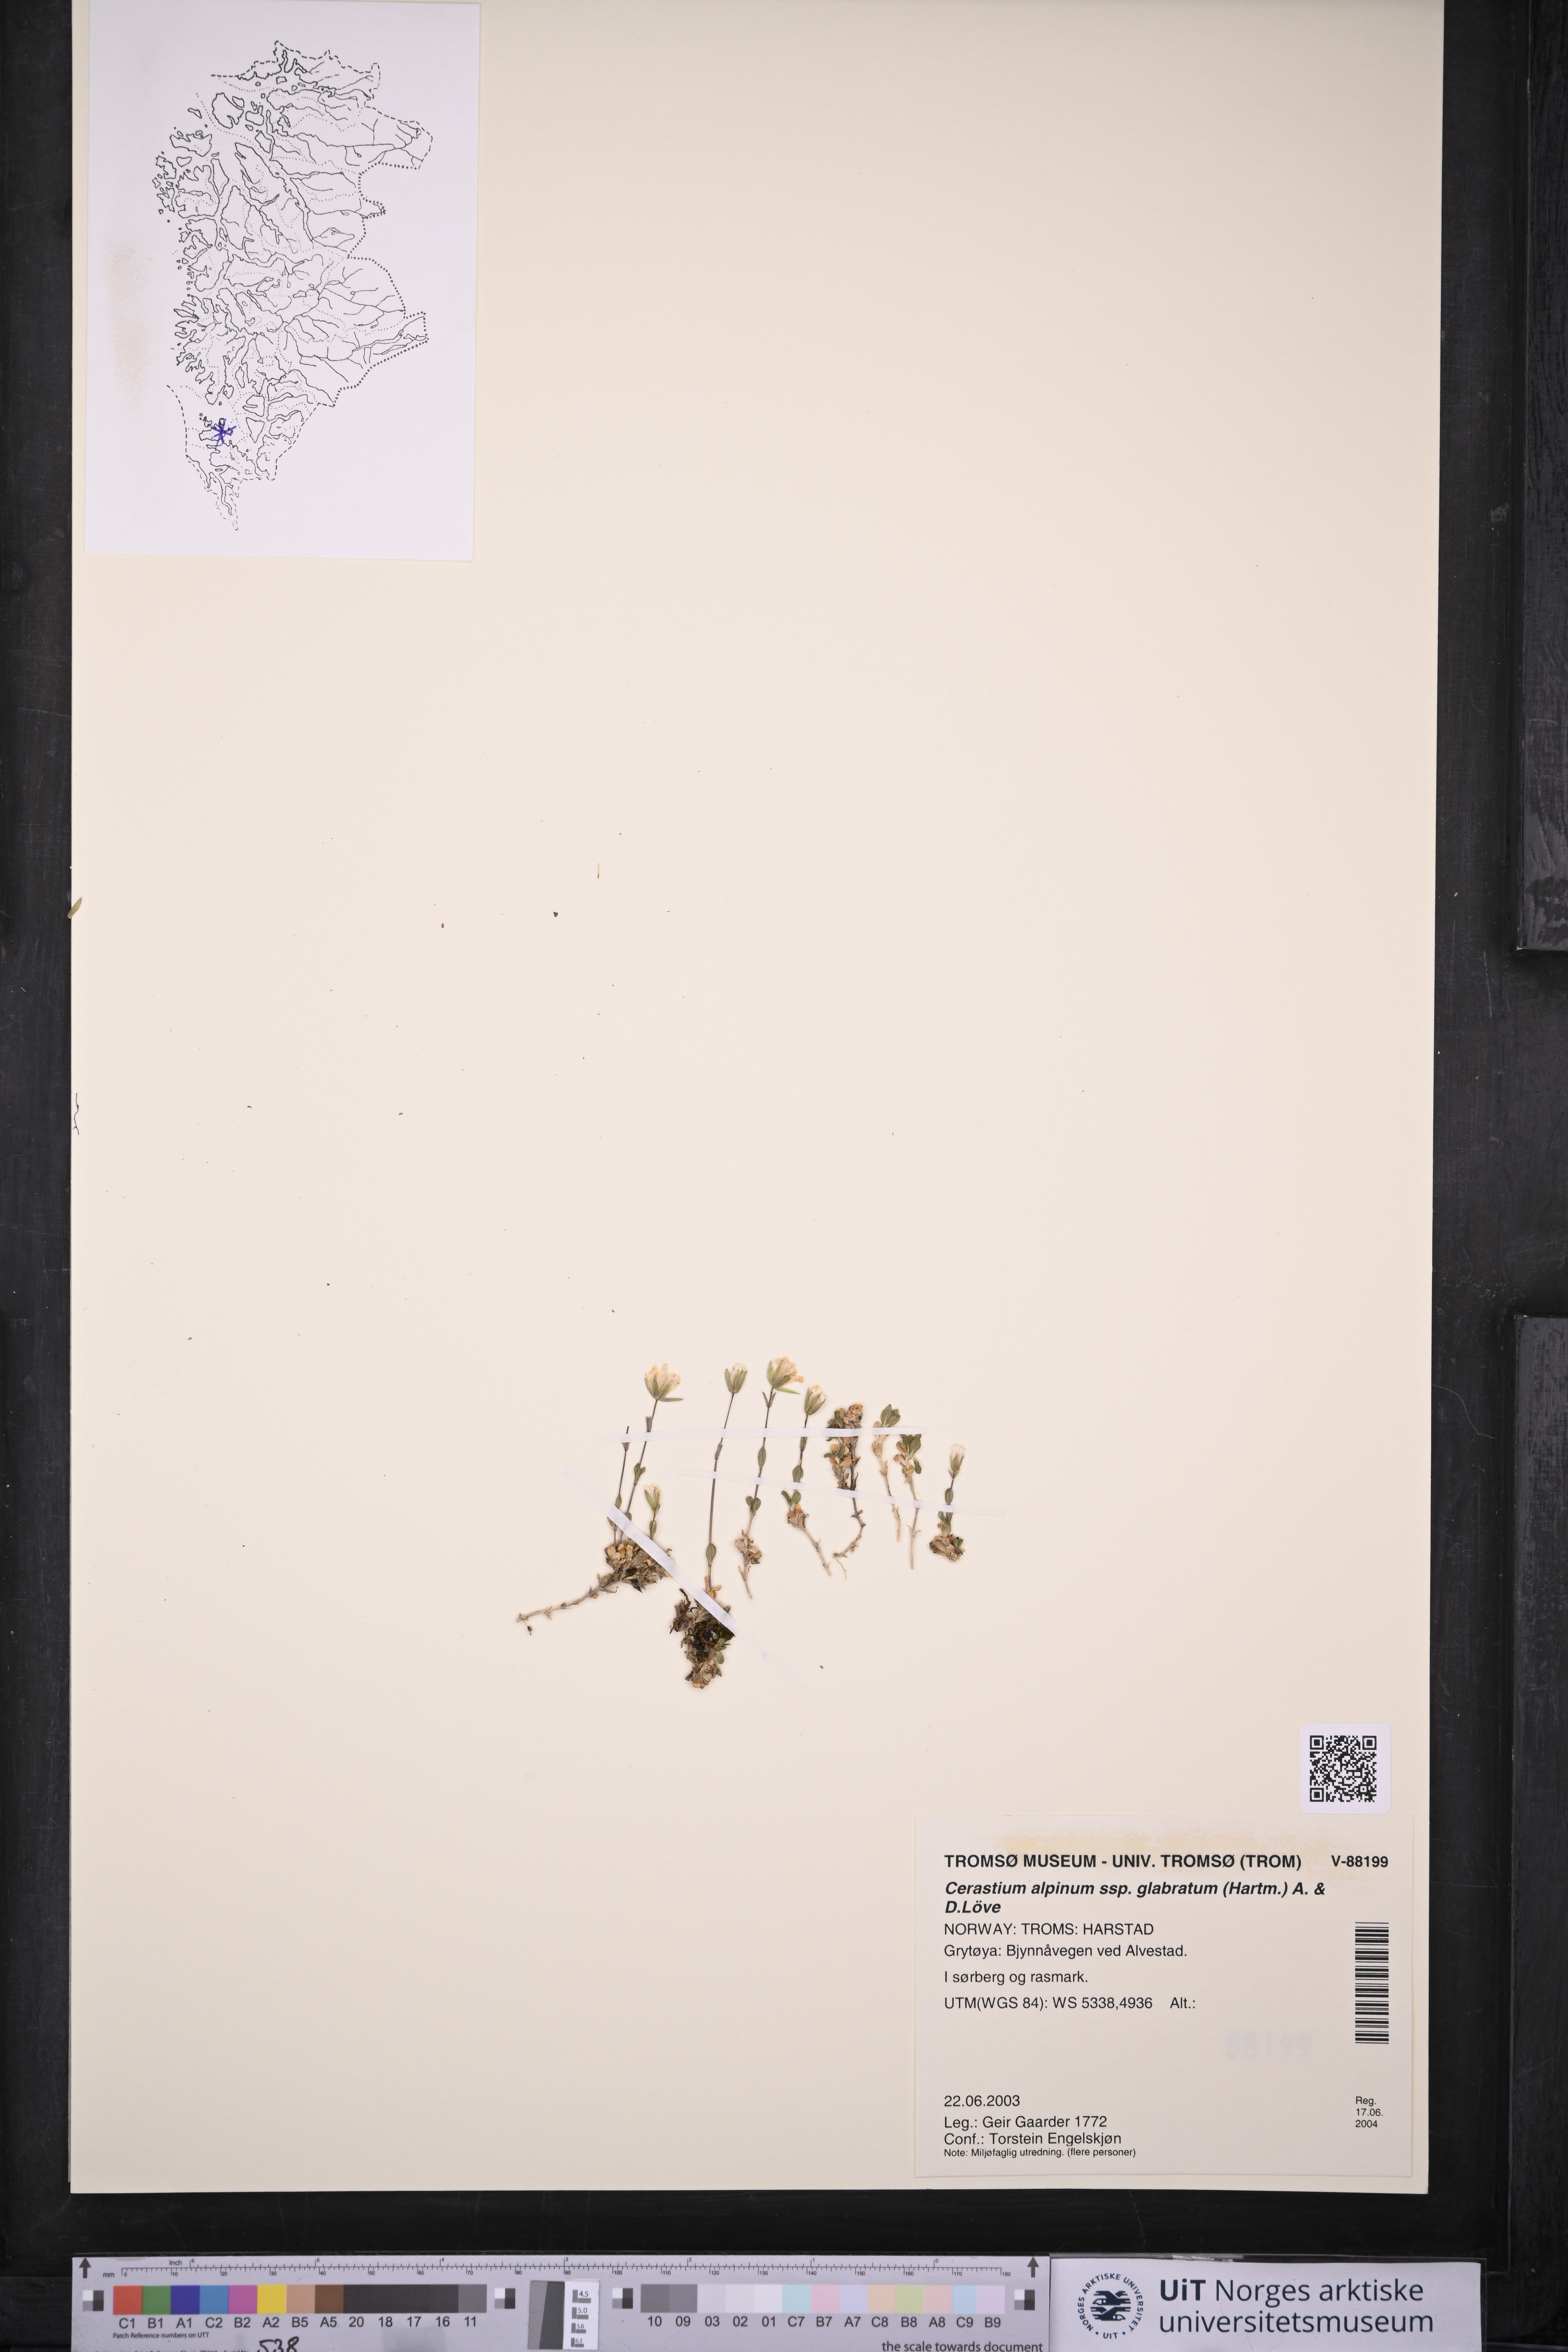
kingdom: Plantae
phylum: Tracheophyta
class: Magnoliopsida
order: Caryophyllales
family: Caryophyllaceae
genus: Cerastium
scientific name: Cerastium alpinum
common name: Alpine mouse-ear
